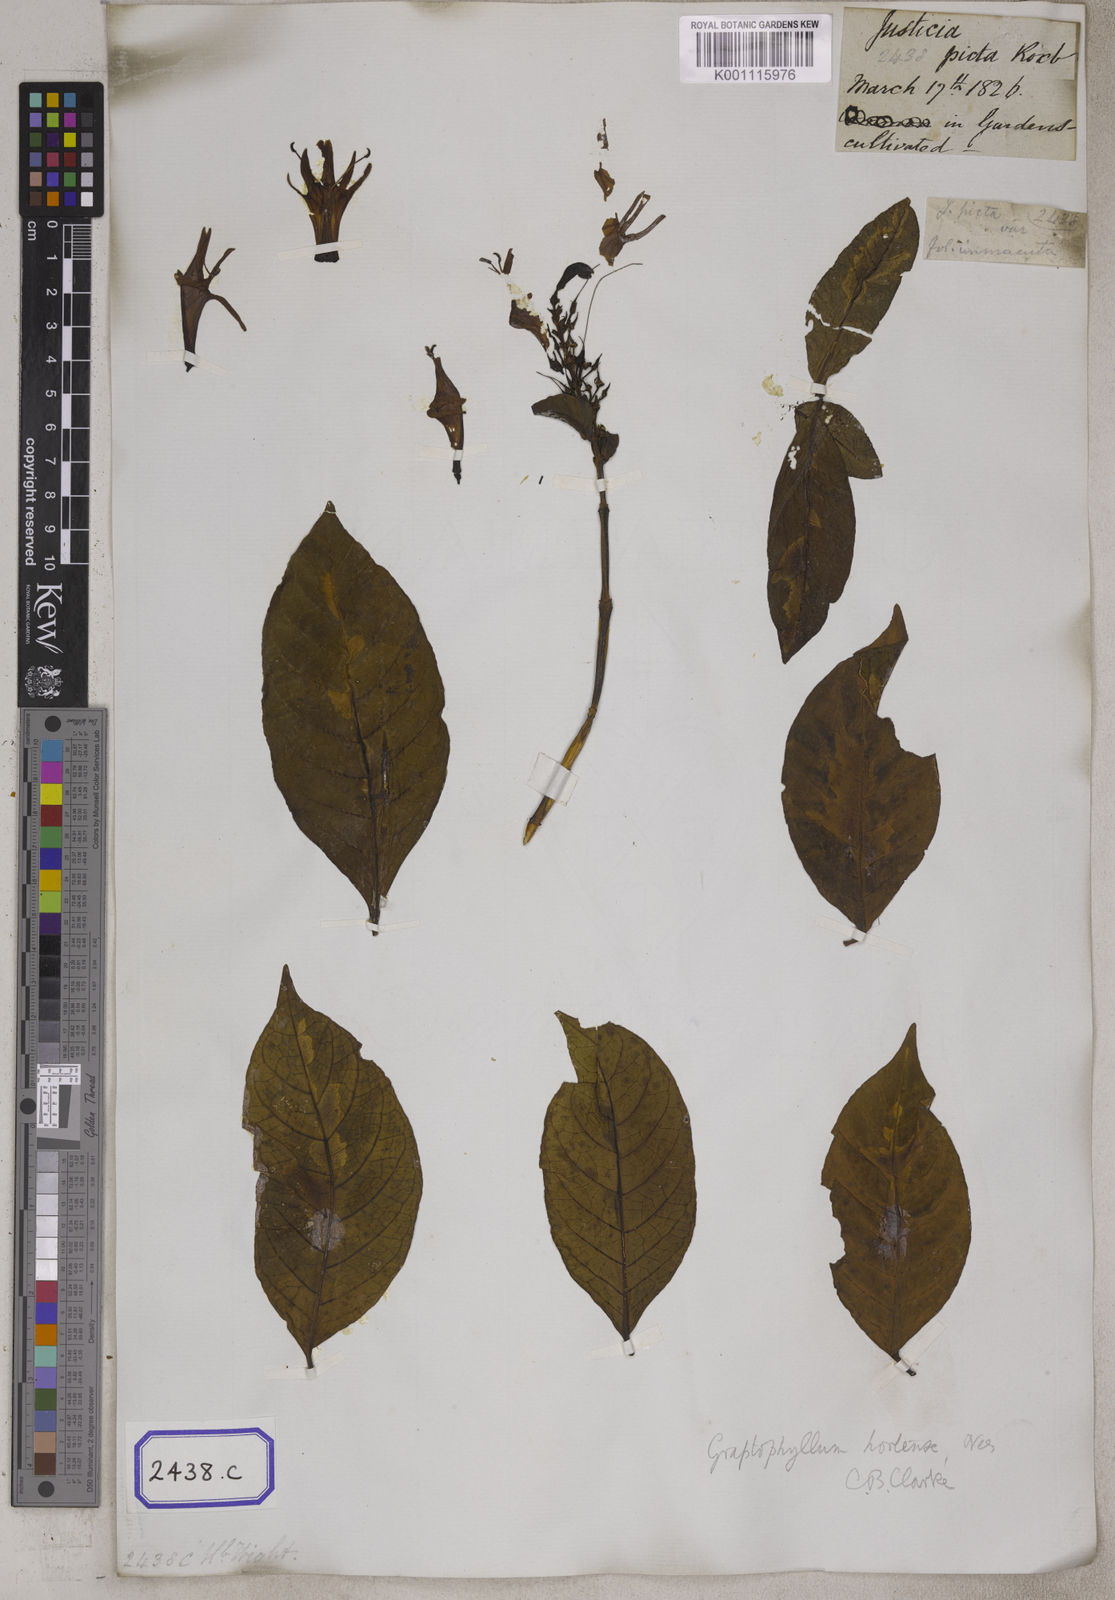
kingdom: Plantae
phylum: Tracheophyta
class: Magnoliopsida
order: Lamiales
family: Acanthaceae
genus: Graptophyllum
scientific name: Graptophyllum pictum
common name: Caricature-plant
